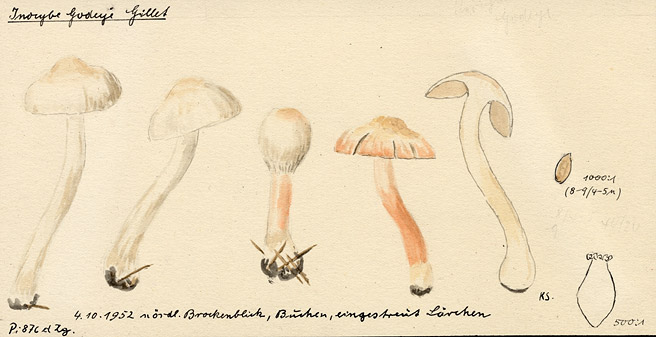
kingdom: Fungi
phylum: Basidiomycota
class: Agaricomycetes
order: Agaricales
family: Inocybaceae
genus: Inocybe
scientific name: Inocybe godeyi
